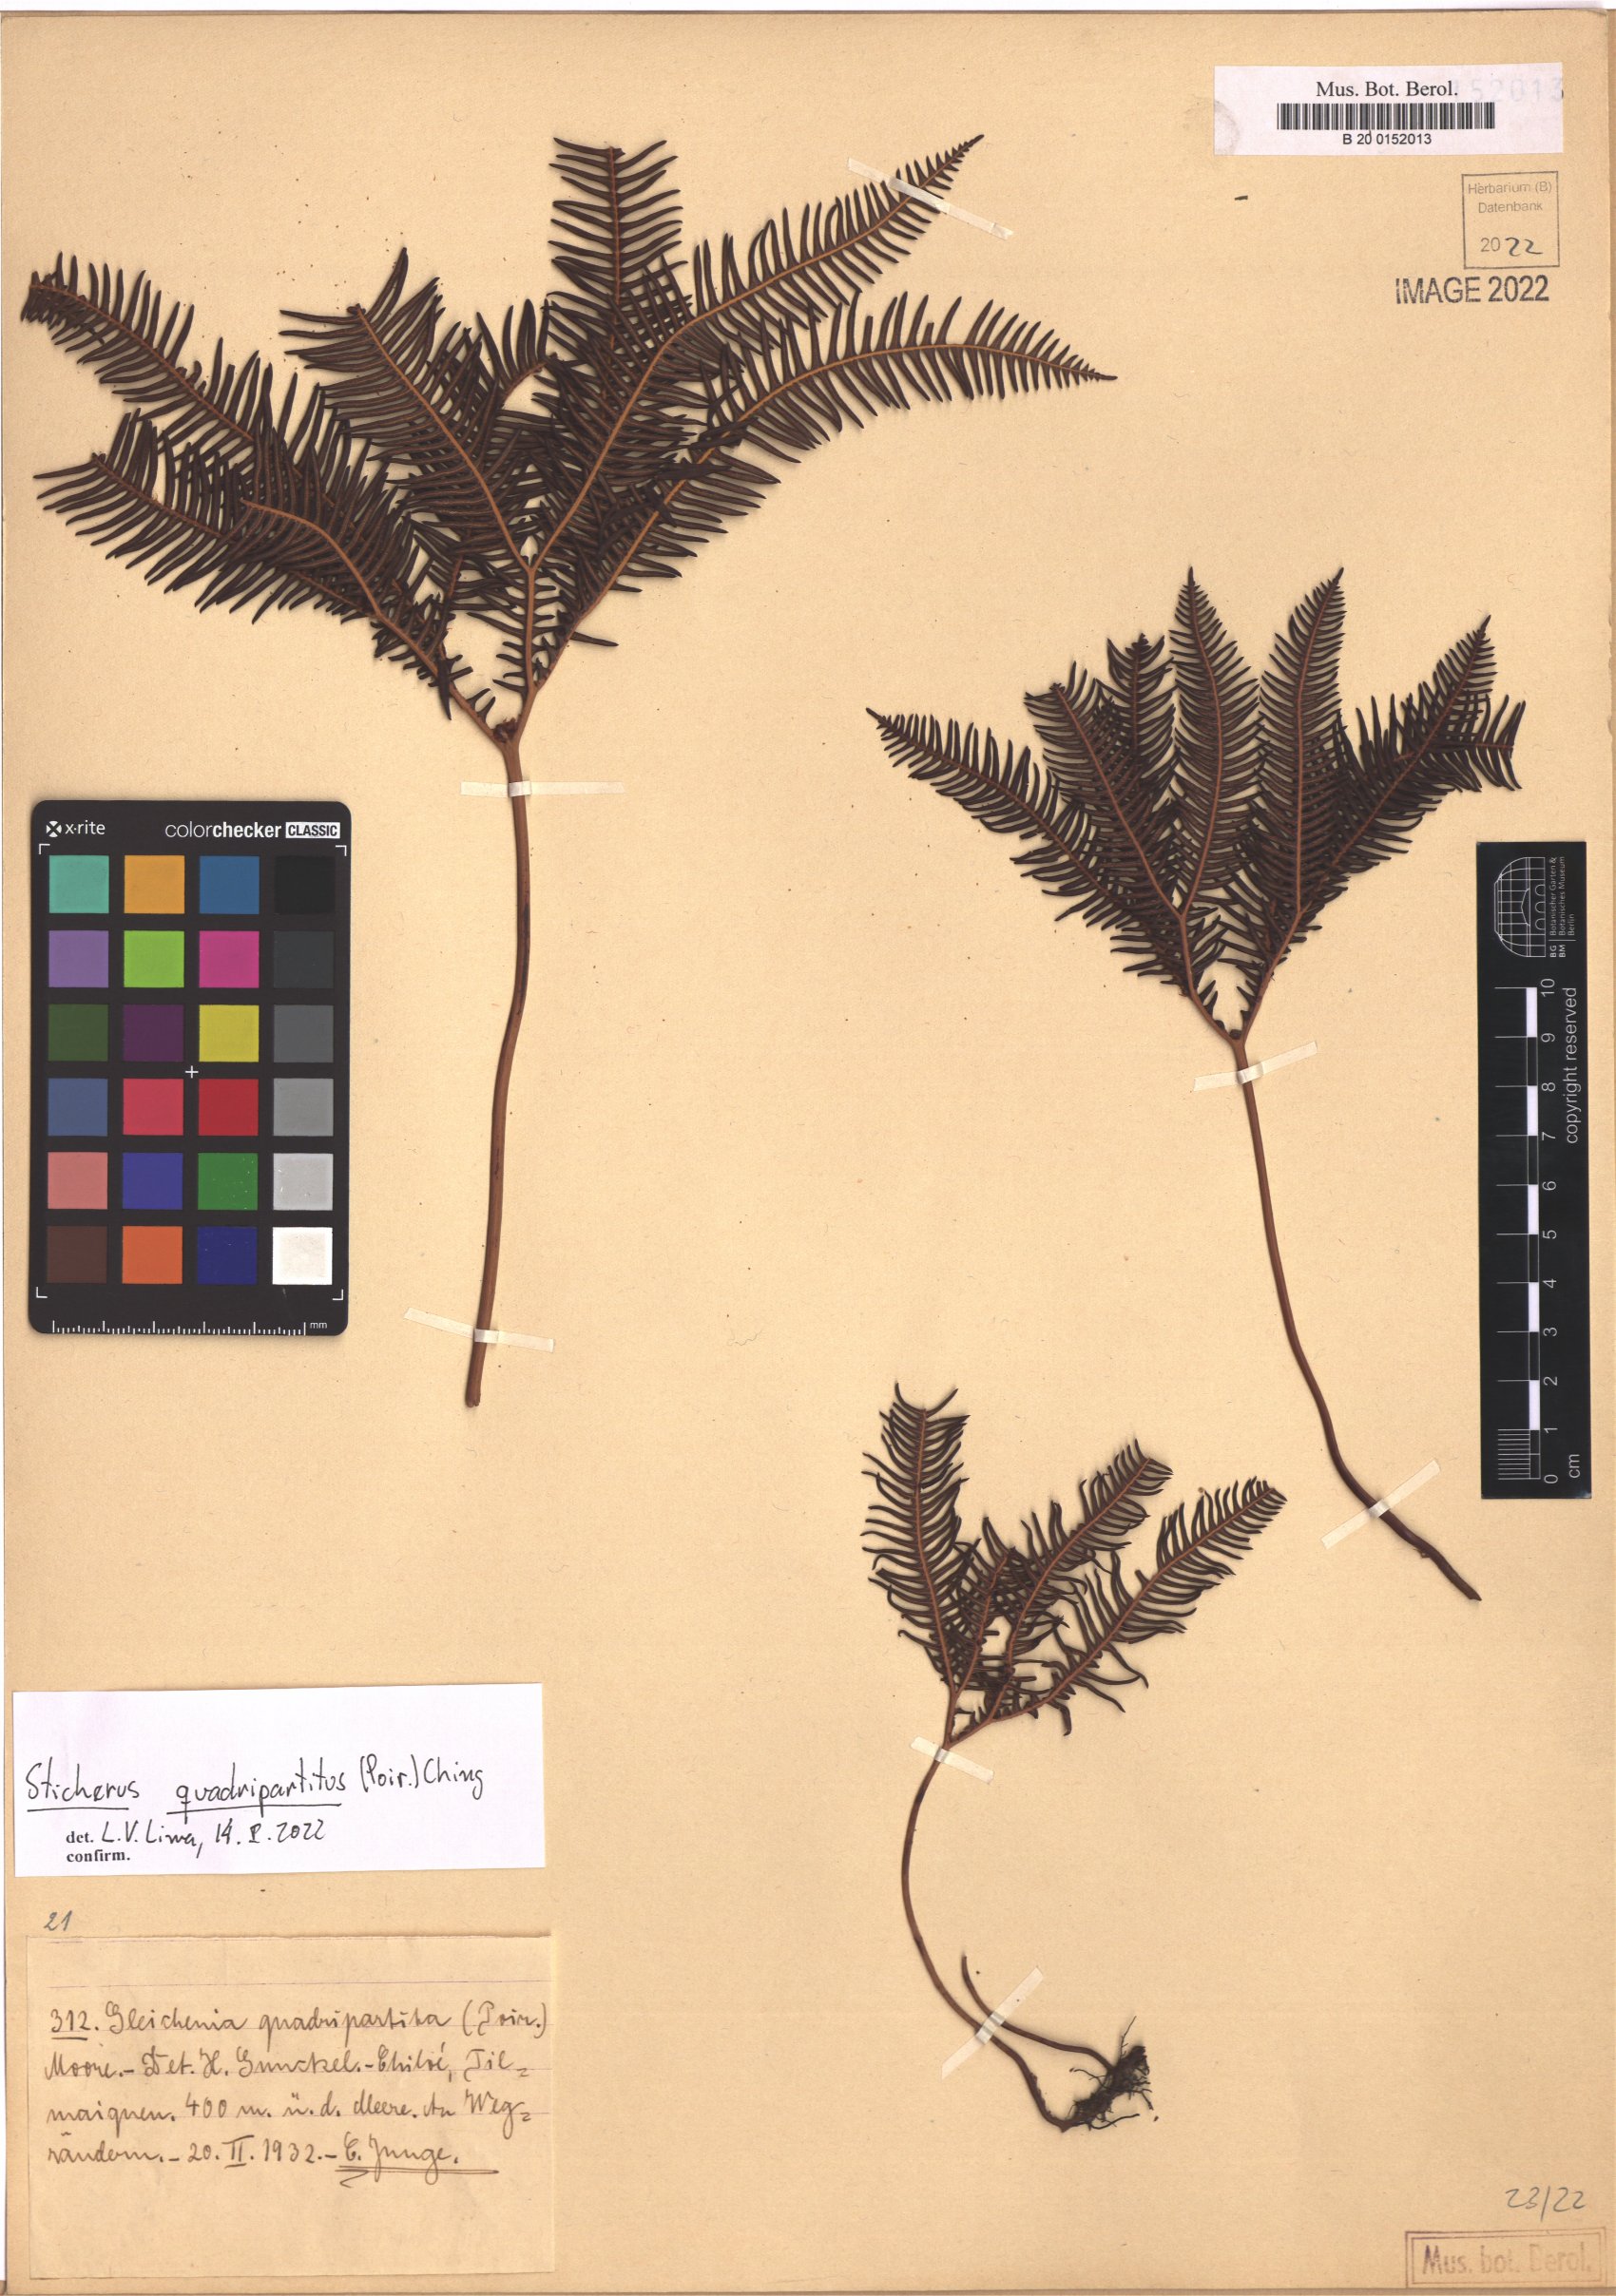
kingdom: Plantae
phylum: Tracheophyta
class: Polypodiopsida
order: Gleicheniales
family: Gleicheniaceae
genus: Sticherus
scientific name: Sticherus quadripartitus
